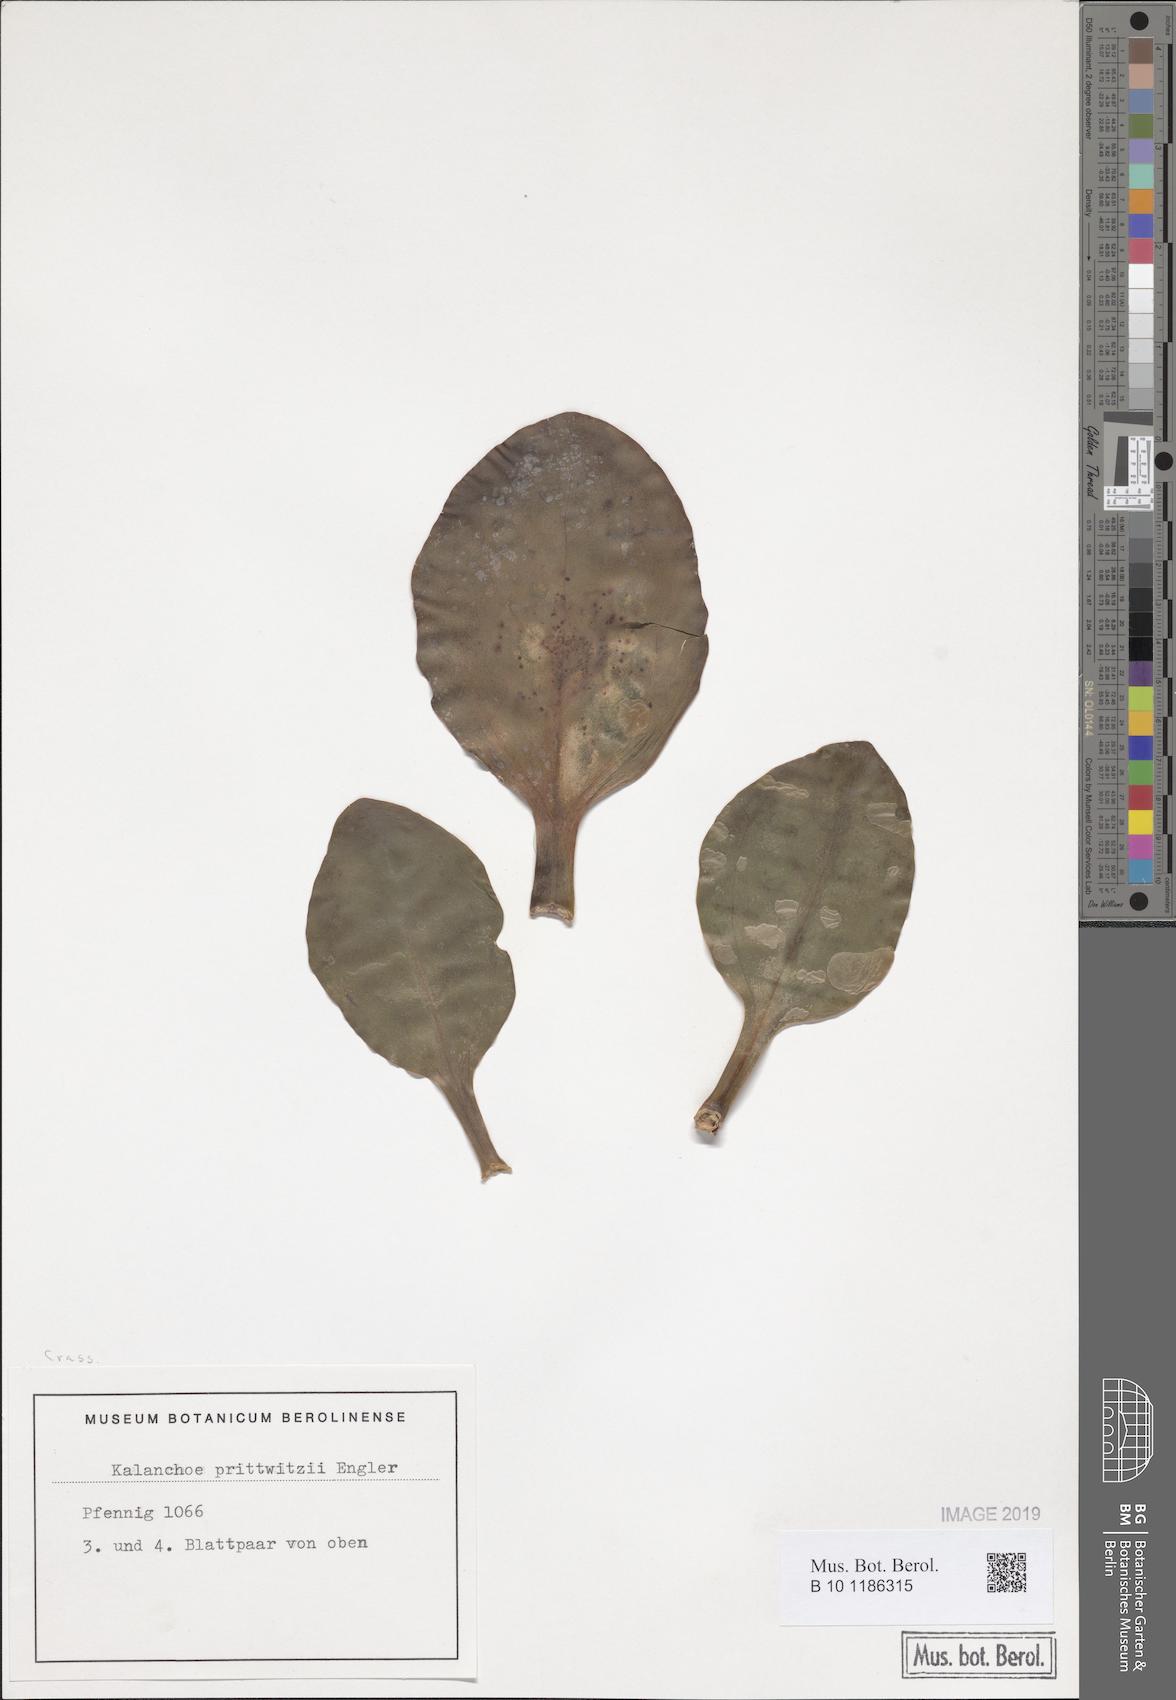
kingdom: Plantae
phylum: Tracheophyta
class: Magnoliopsida
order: Saxifragales
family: Crassulaceae
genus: Kalanchoe
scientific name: Kalanchoe prittwitzii
